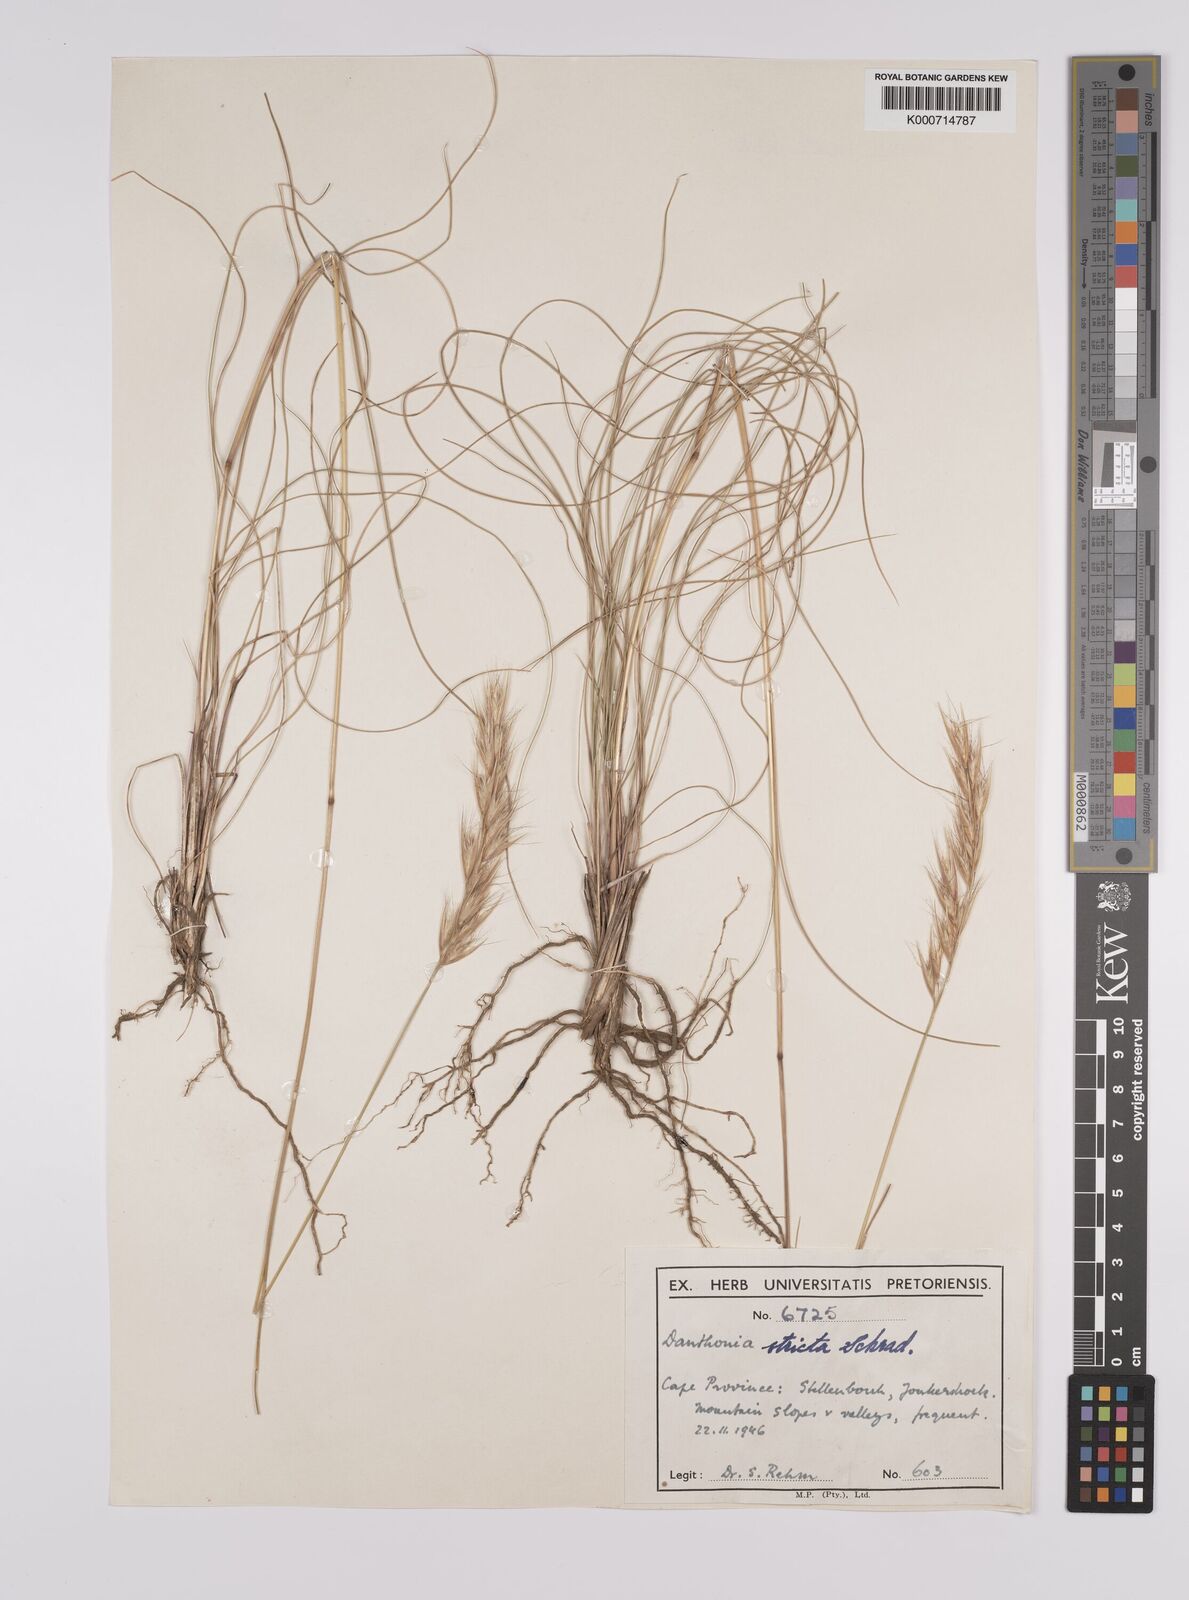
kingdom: Plantae
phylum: Tracheophyta
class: Liliopsida
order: Poales
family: Poaceae
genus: Rytidosperma
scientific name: Rytidosperma
